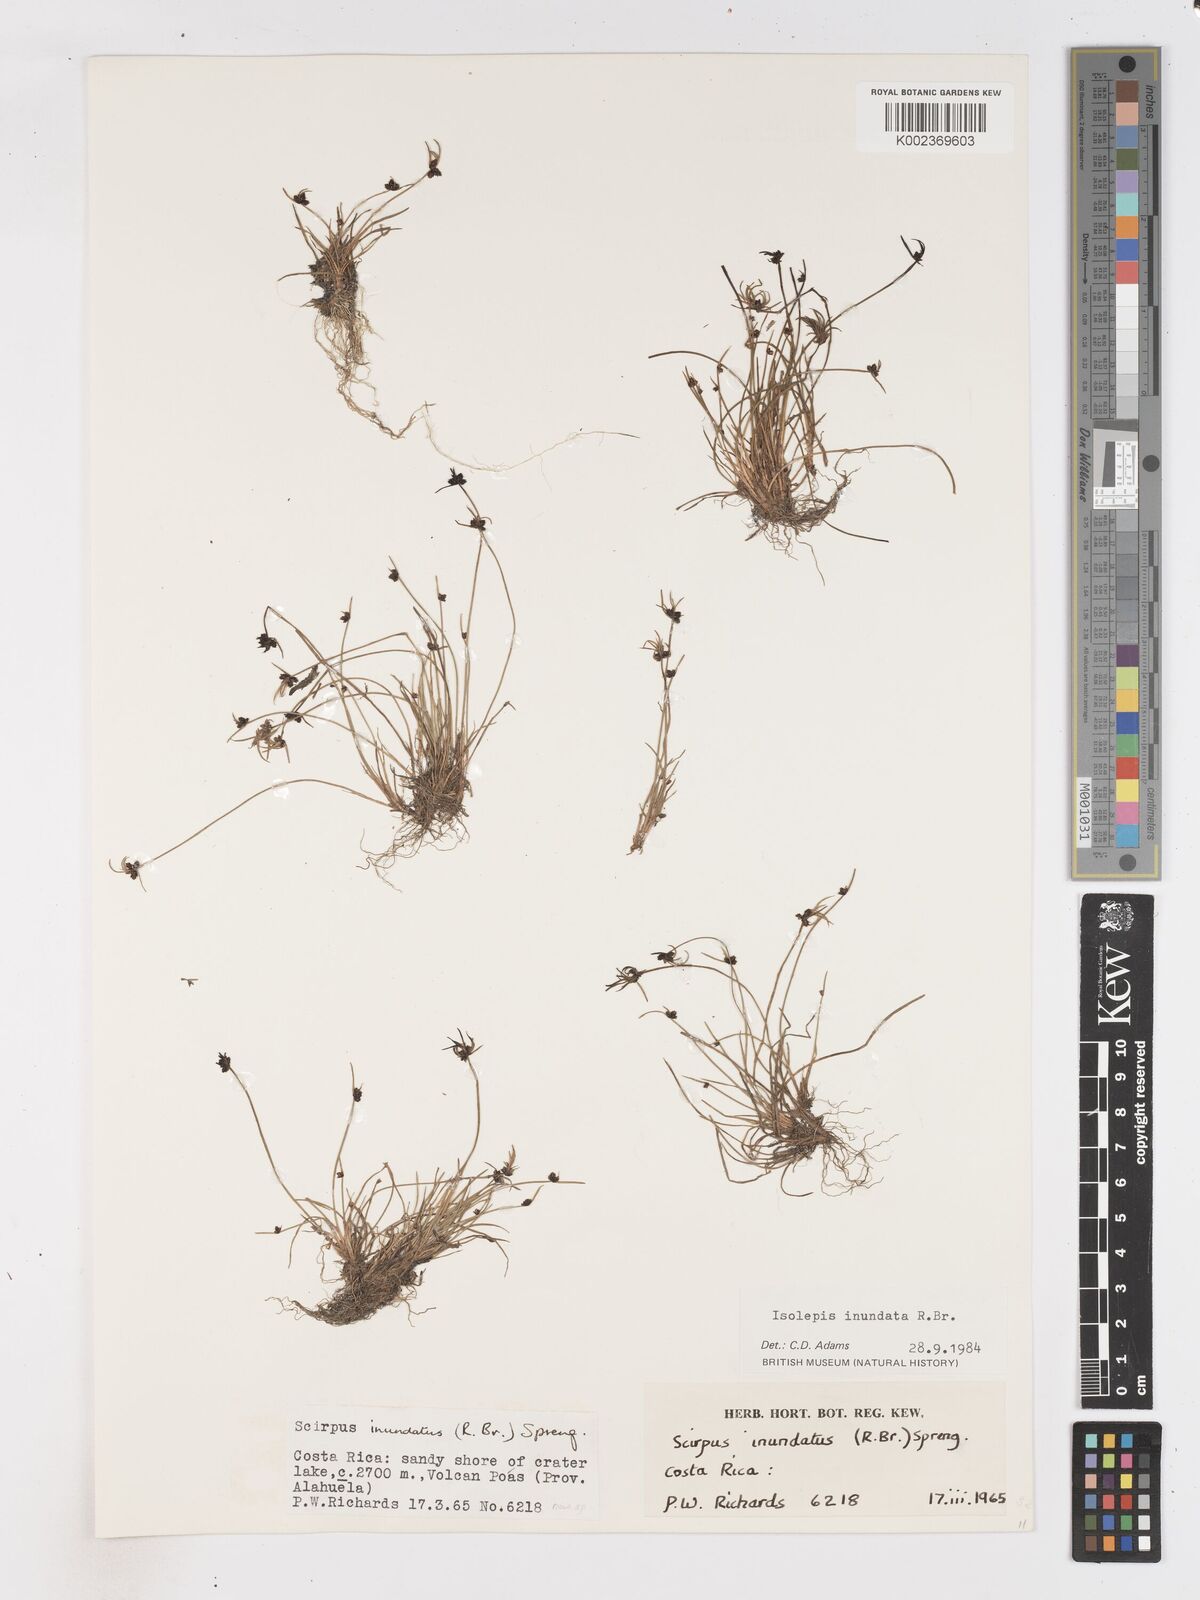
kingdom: Plantae
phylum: Tracheophyta
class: Liliopsida
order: Poales
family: Cyperaceae
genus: Isolepis
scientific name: Isolepis inundata
